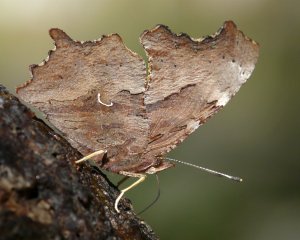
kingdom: Animalia
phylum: Arthropoda
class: Insecta
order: Lepidoptera
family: Nymphalidae
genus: Polygonia
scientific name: Polygonia satyrus
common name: Satyr Comma
